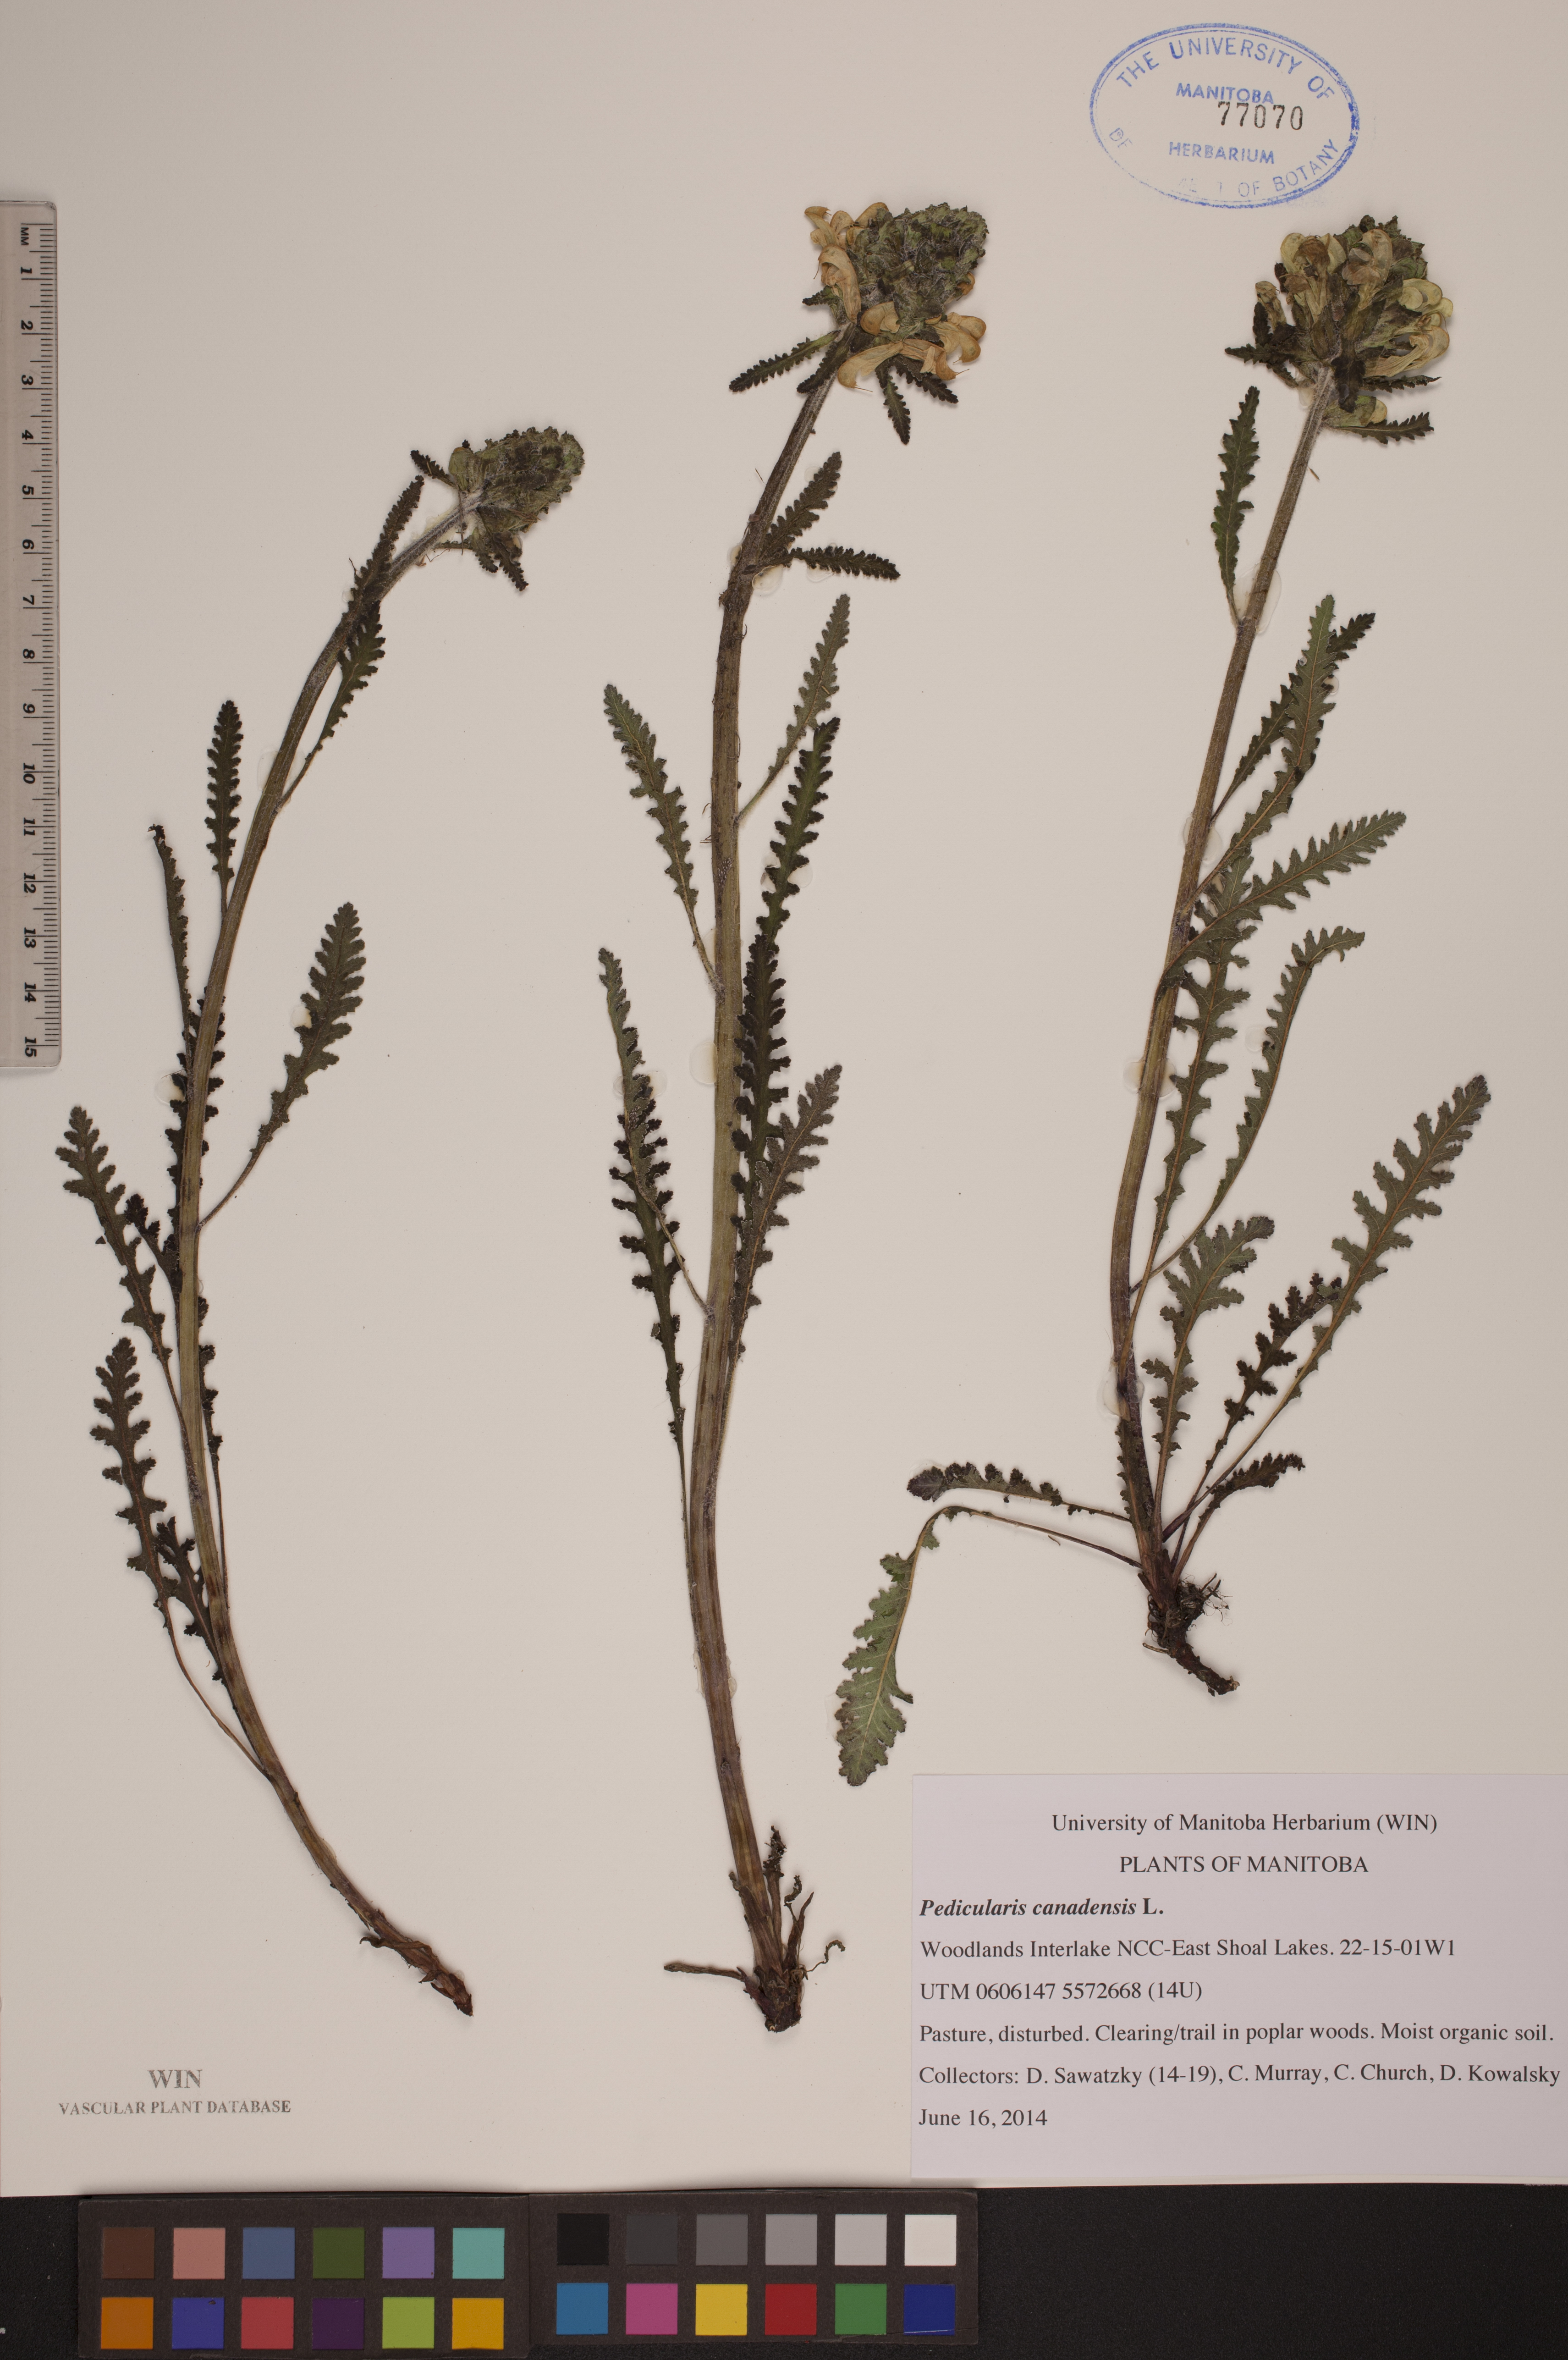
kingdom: Plantae
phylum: Tracheophyta
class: Magnoliopsida
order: Lamiales
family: Orobanchaceae
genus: Pedicularis
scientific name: Pedicularis canadensis
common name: Early lousewort
